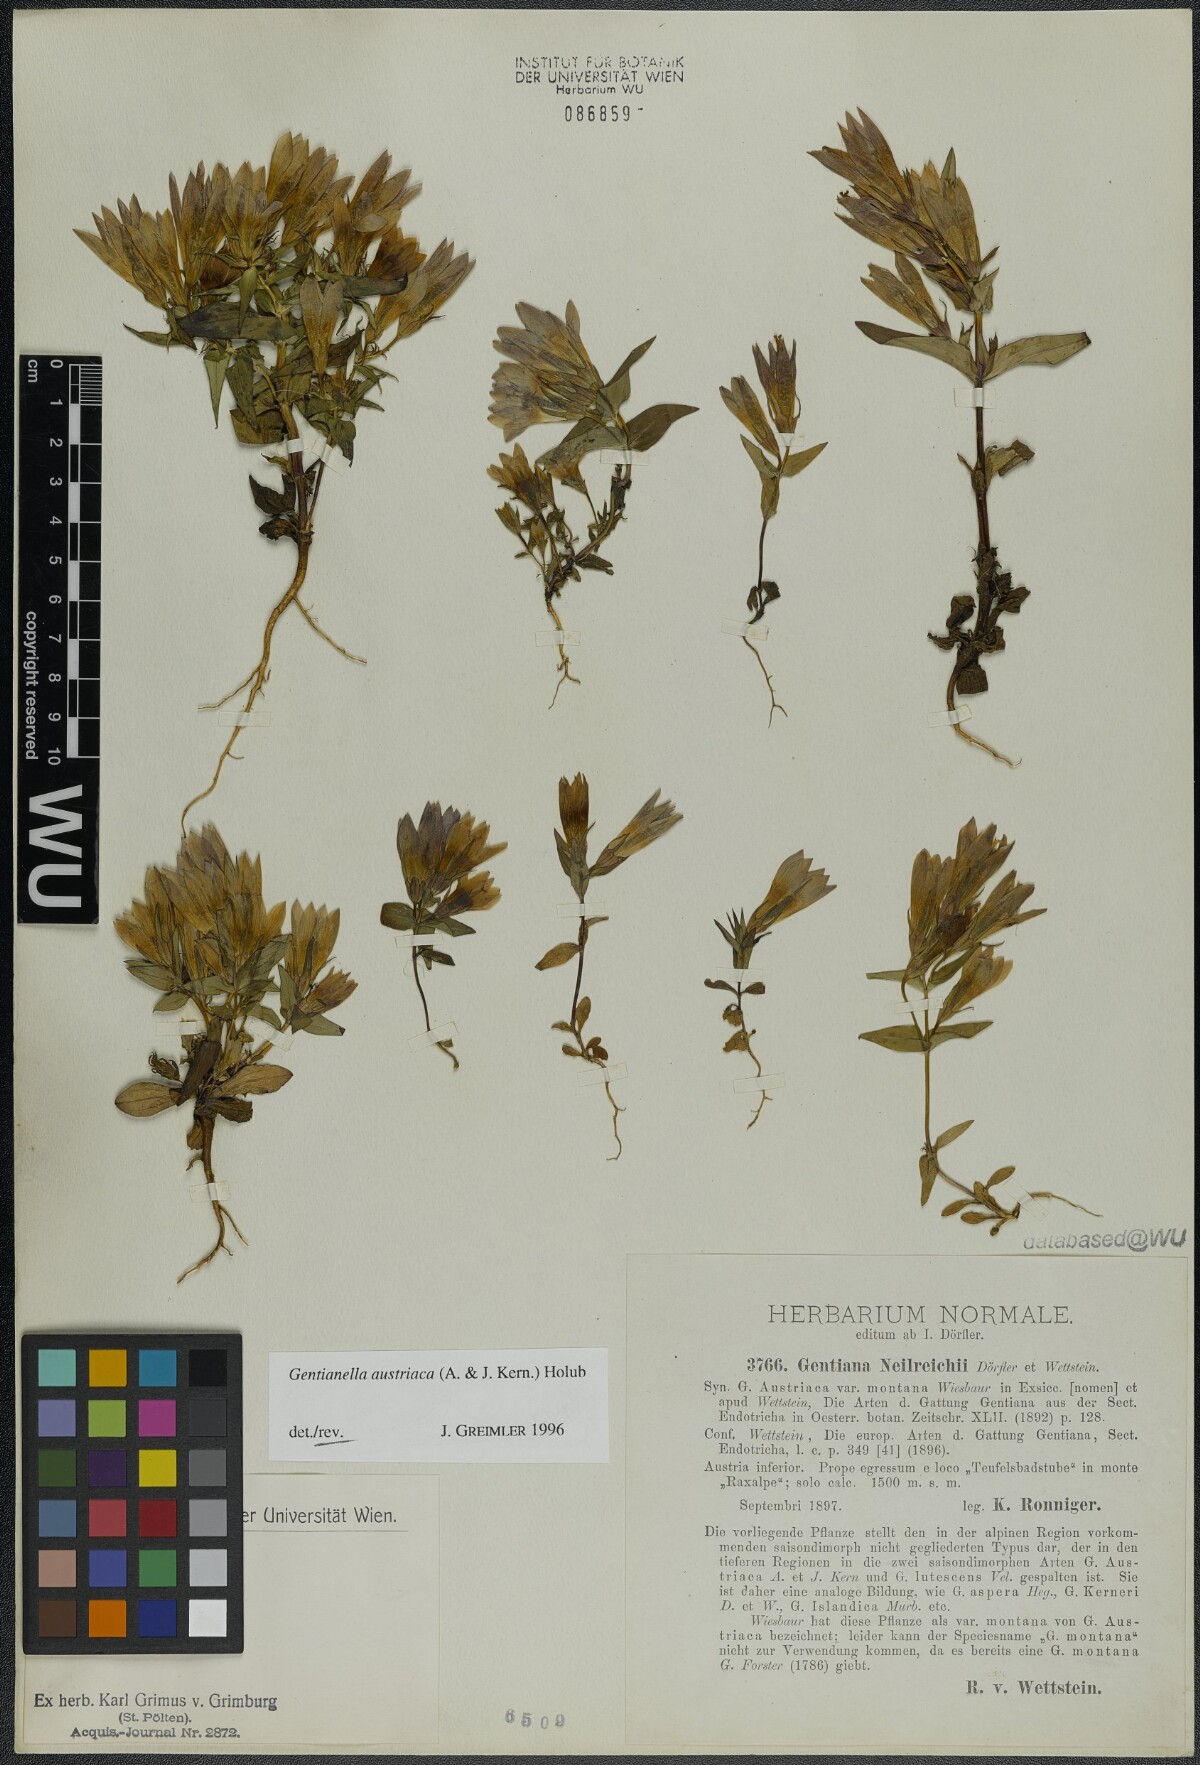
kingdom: Plantae
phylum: Tracheophyta
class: Magnoliopsida
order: Gentianales
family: Gentianaceae
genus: Gentianella
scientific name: Gentianella austriaca
